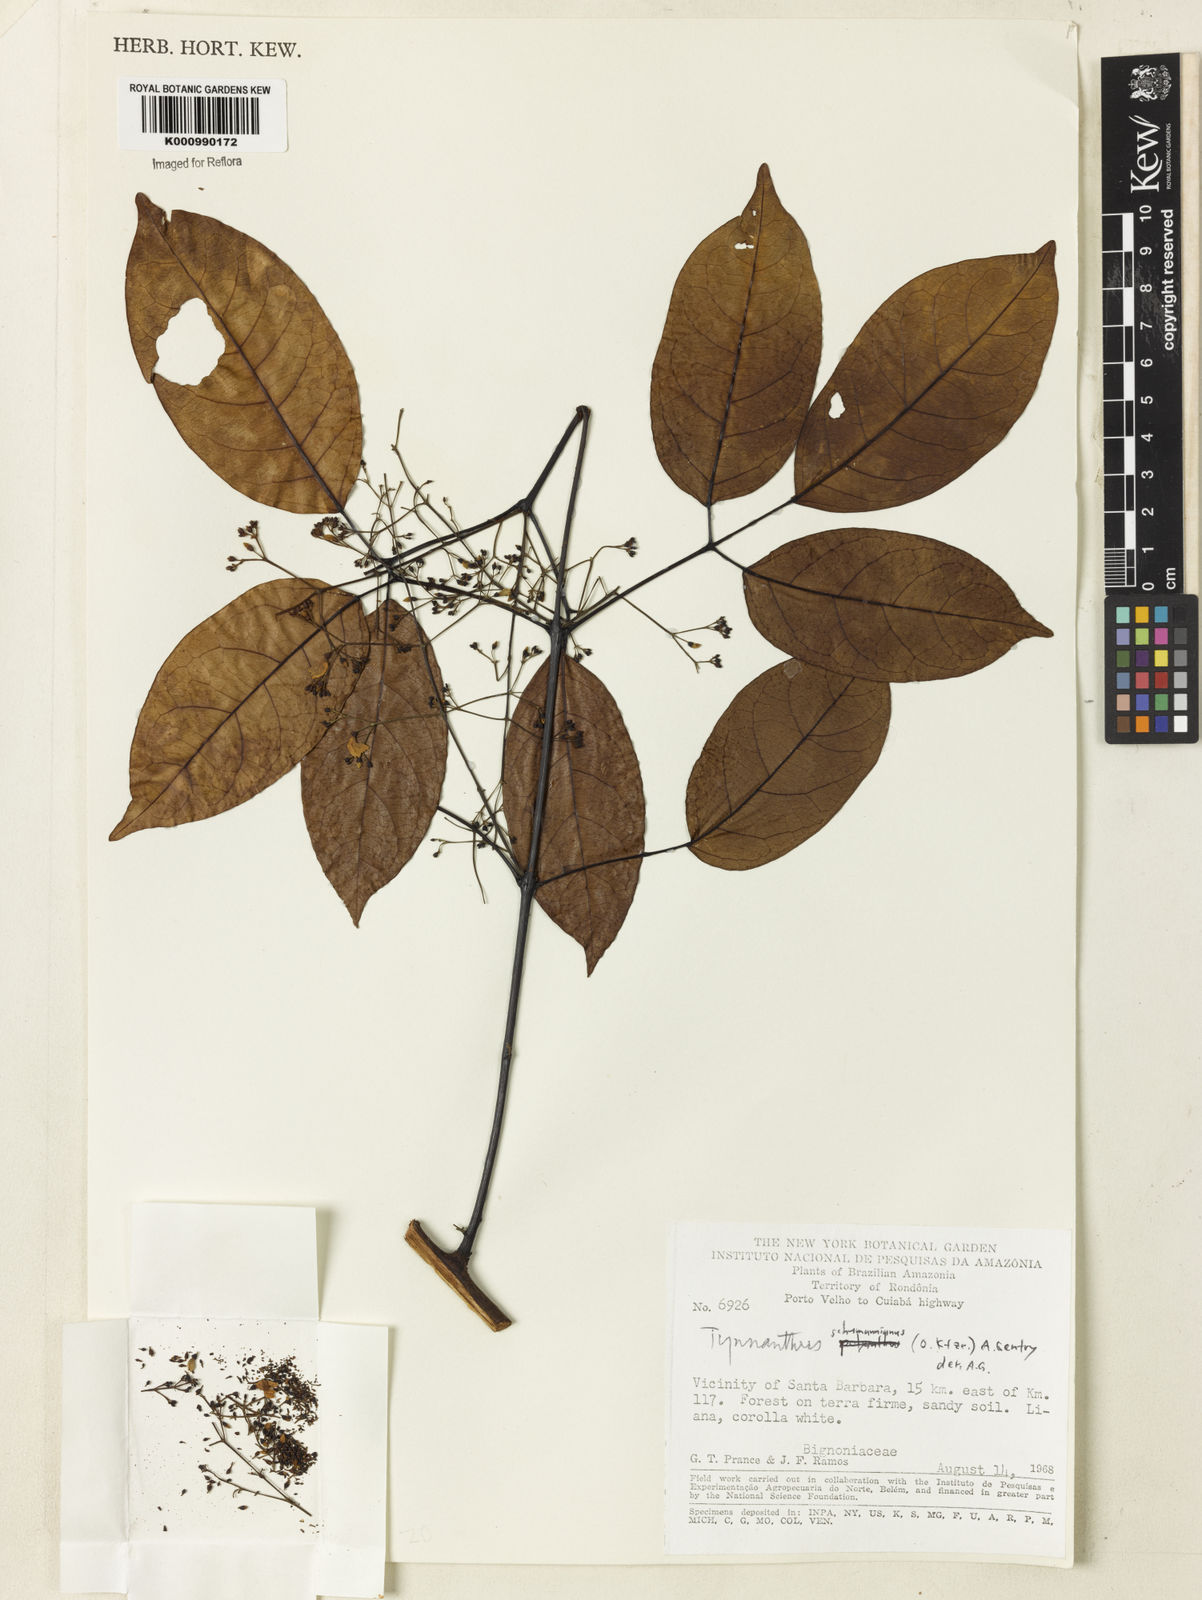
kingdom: Plantae
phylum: Tracheophyta
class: Magnoliopsida
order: Lamiales
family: Bignoniaceae
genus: Tynanthus
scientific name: Tynanthus schumannianus
